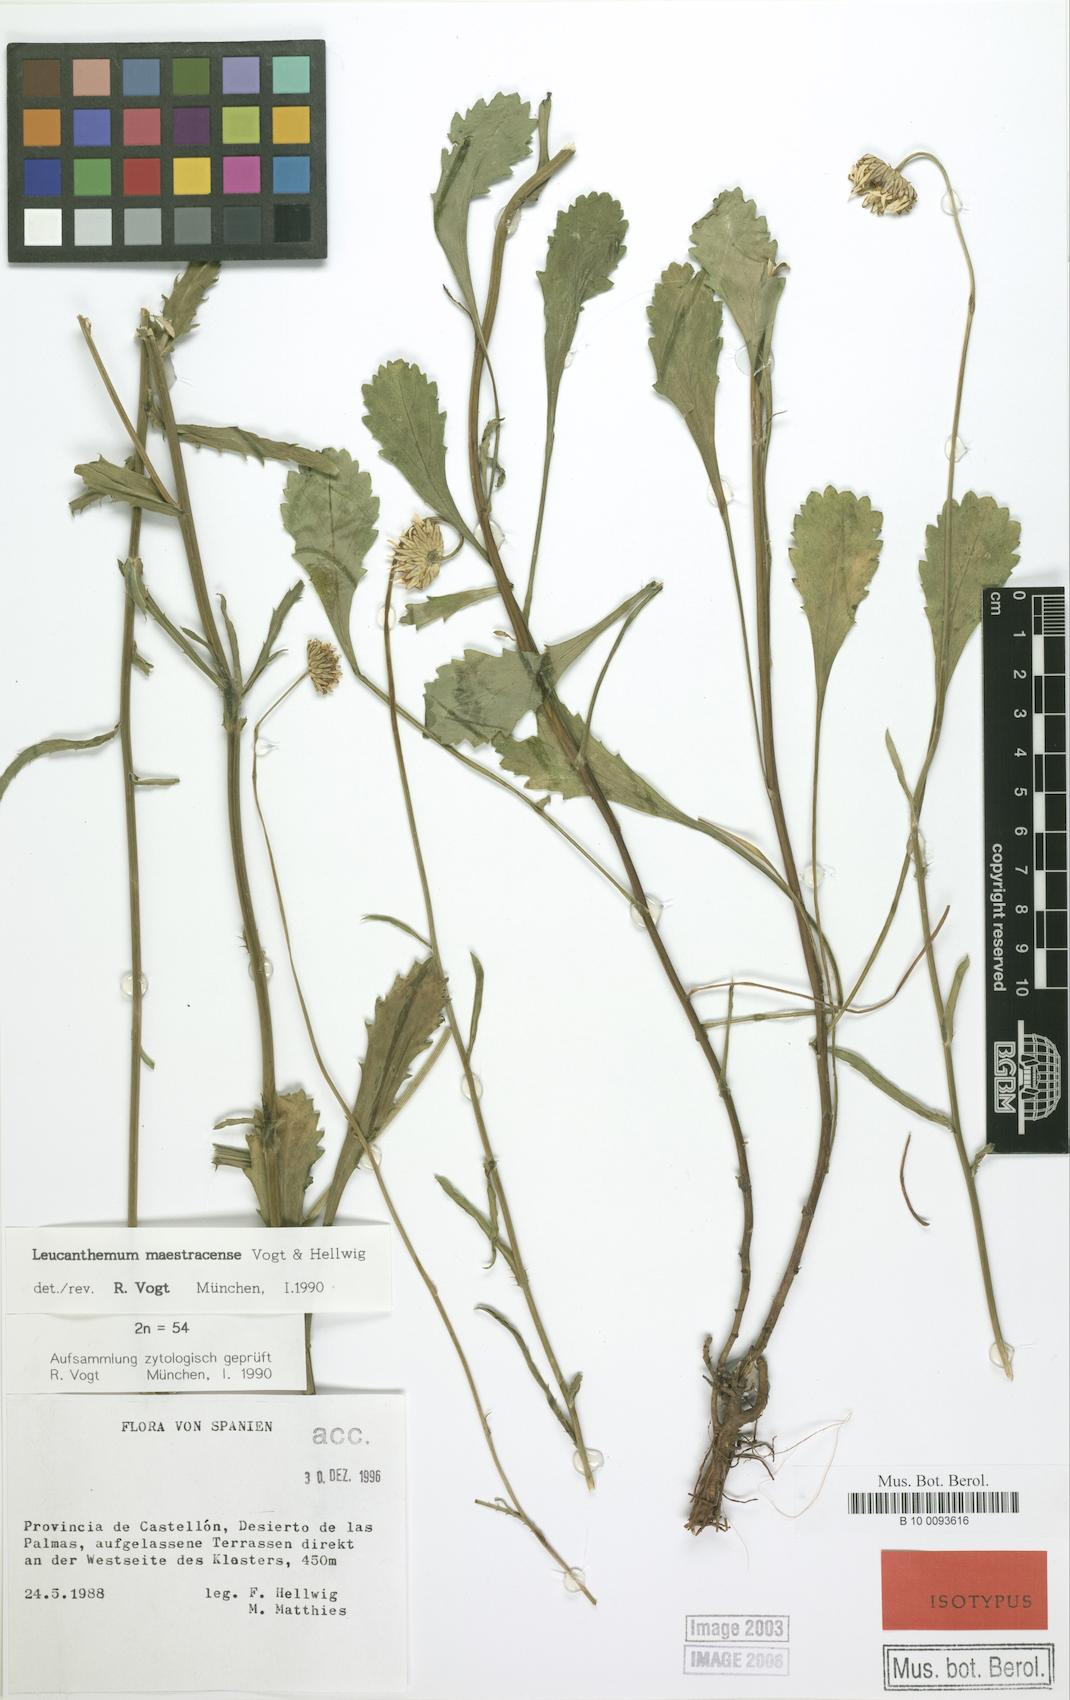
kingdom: Plantae
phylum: Tracheophyta
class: Magnoliopsida
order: Asterales
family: Asteraceae
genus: Leucanthemum
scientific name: Leucanthemum maestracense
